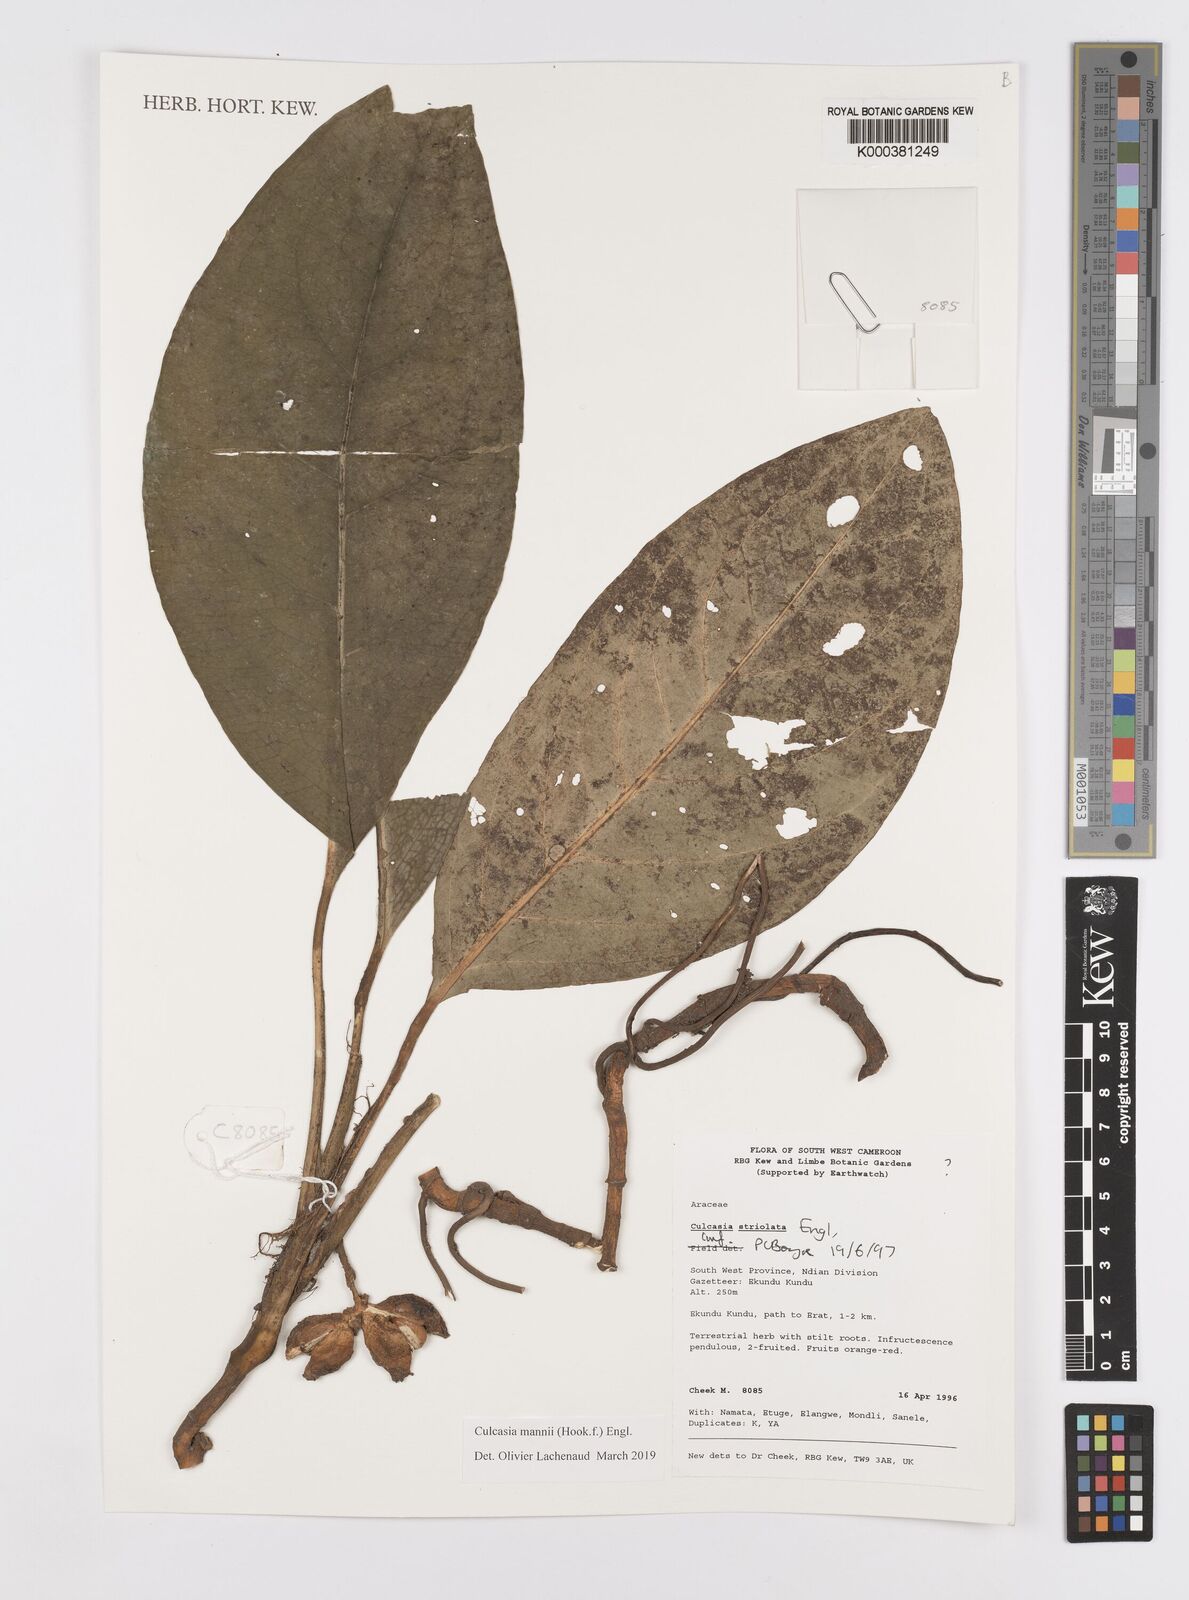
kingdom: Plantae
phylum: Tracheophyta
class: Liliopsida
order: Alismatales
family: Araceae
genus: Culcasia
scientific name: Culcasia mannii
